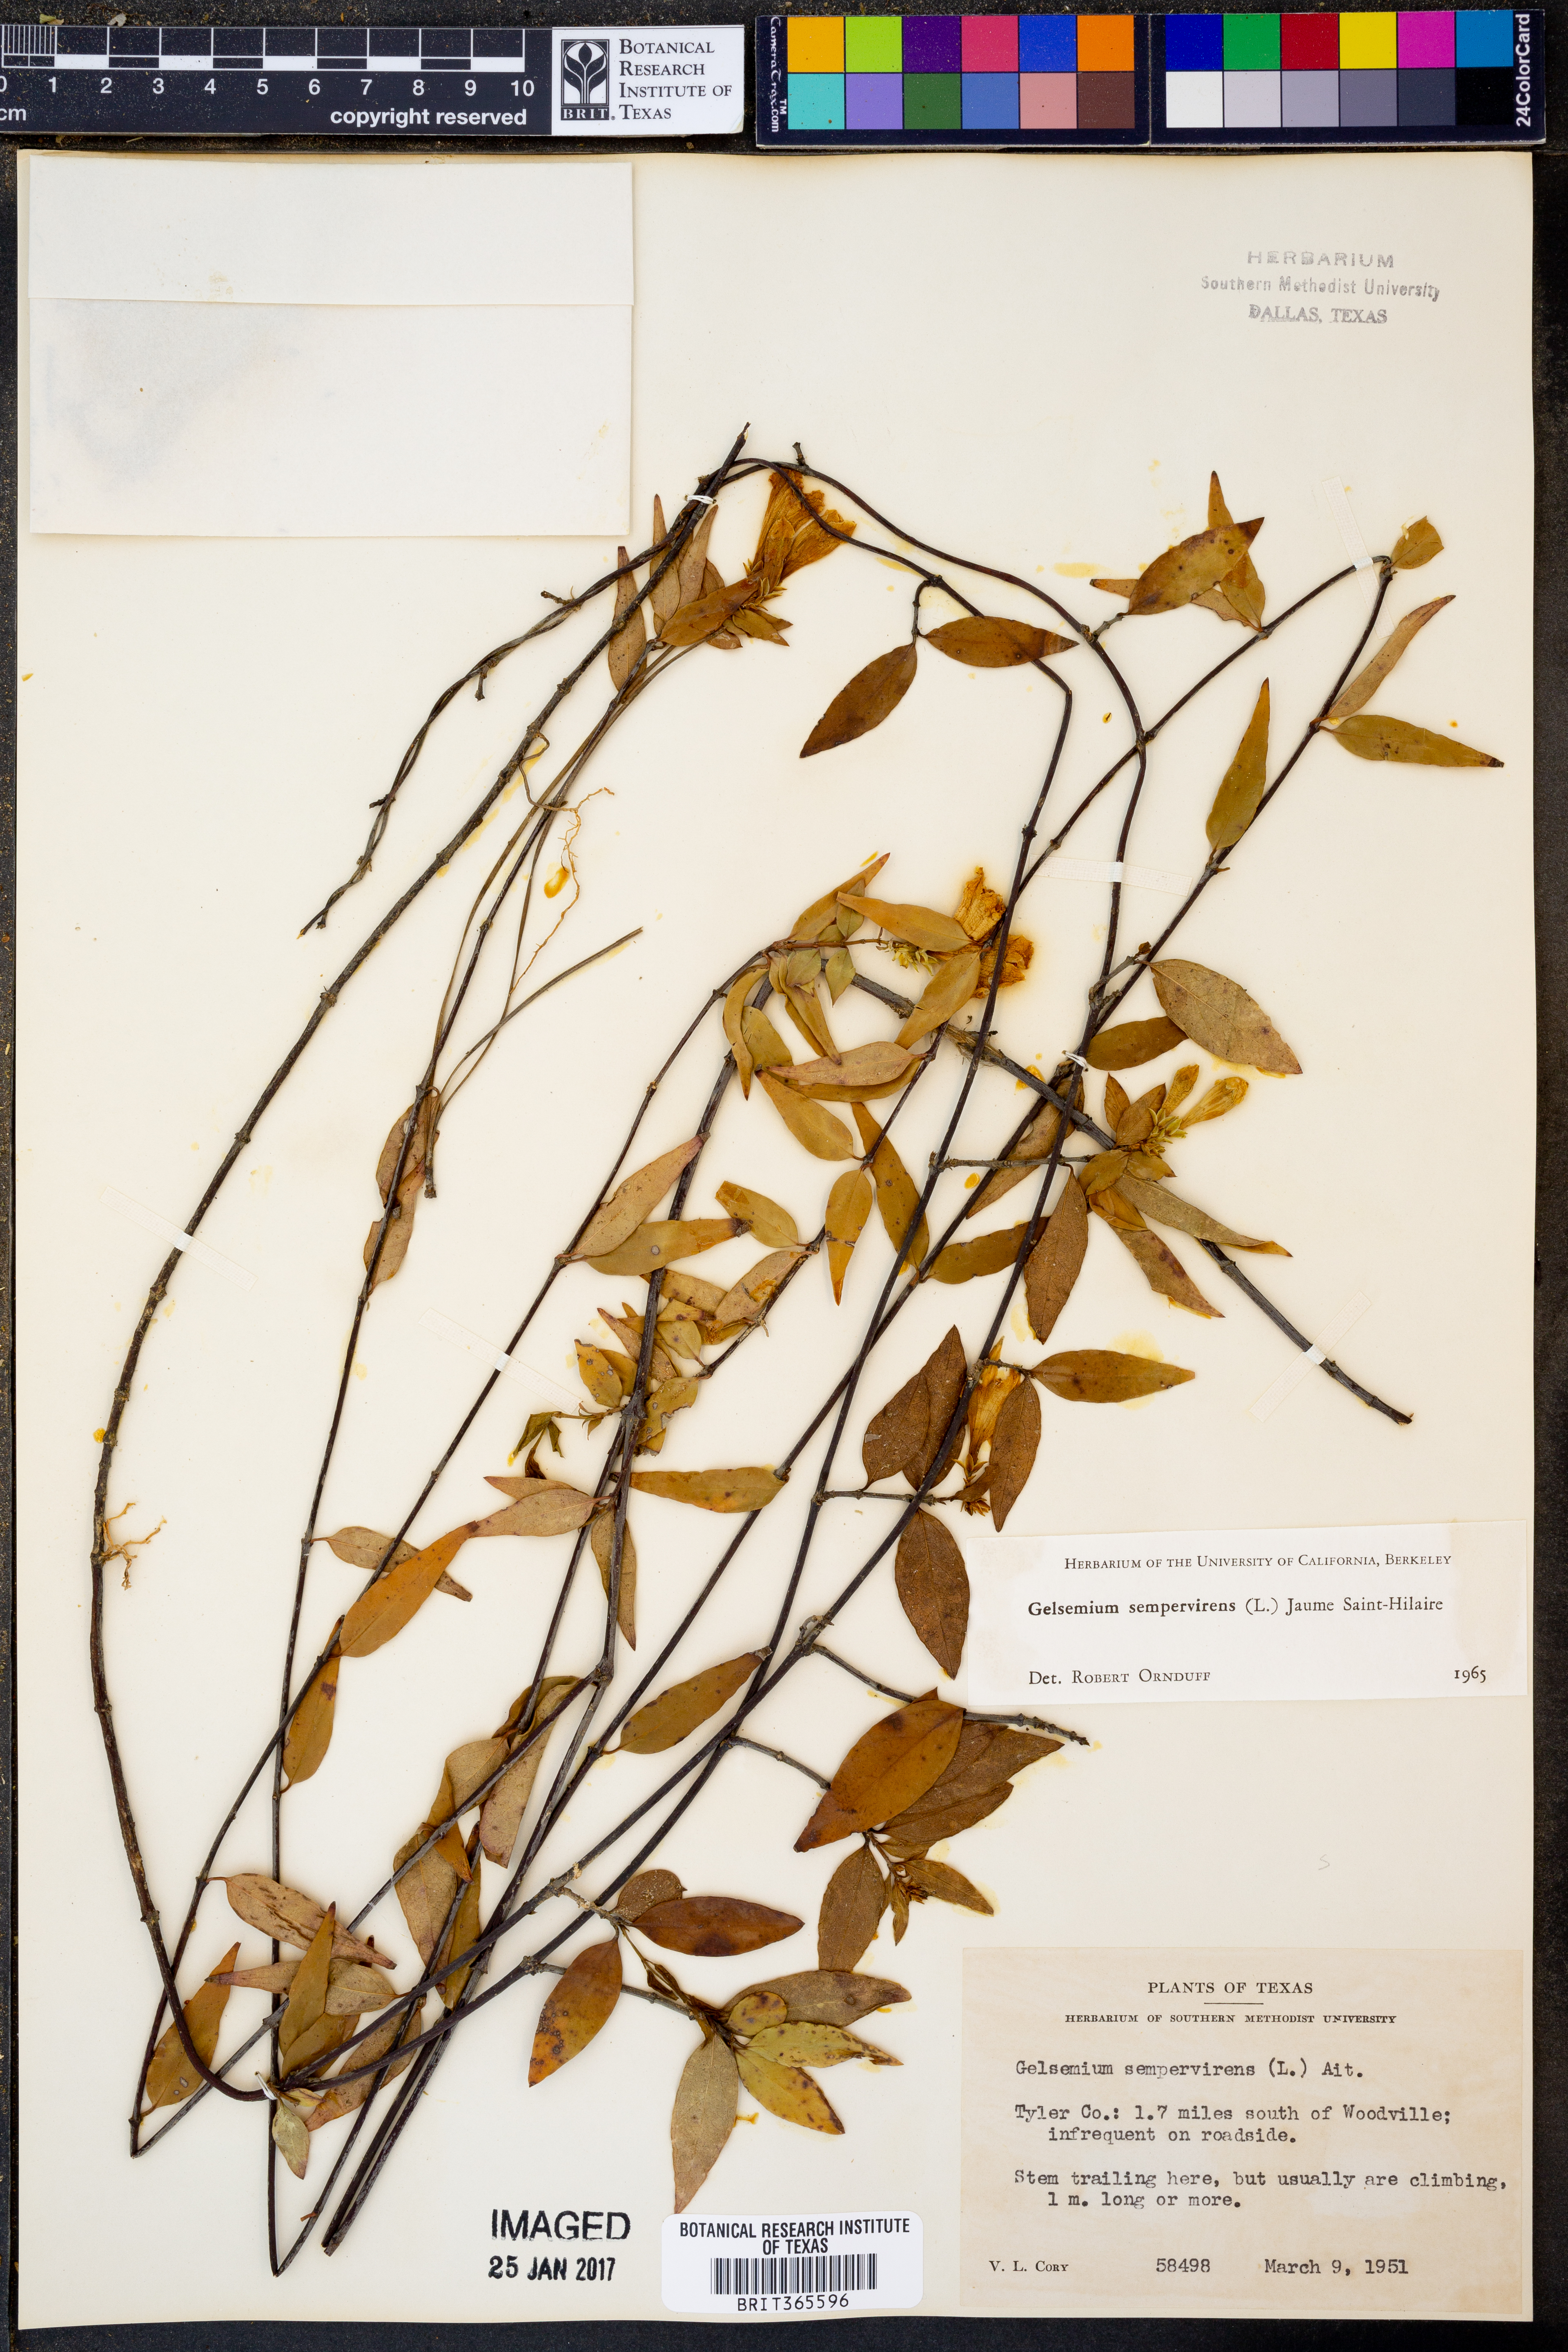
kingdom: Plantae
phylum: Tracheophyta
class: Magnoliopsida
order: Gentianales
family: Gelsemiaceae
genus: Gelsemium
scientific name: Gelsemium sempervirens
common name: Carolina-jasmine
